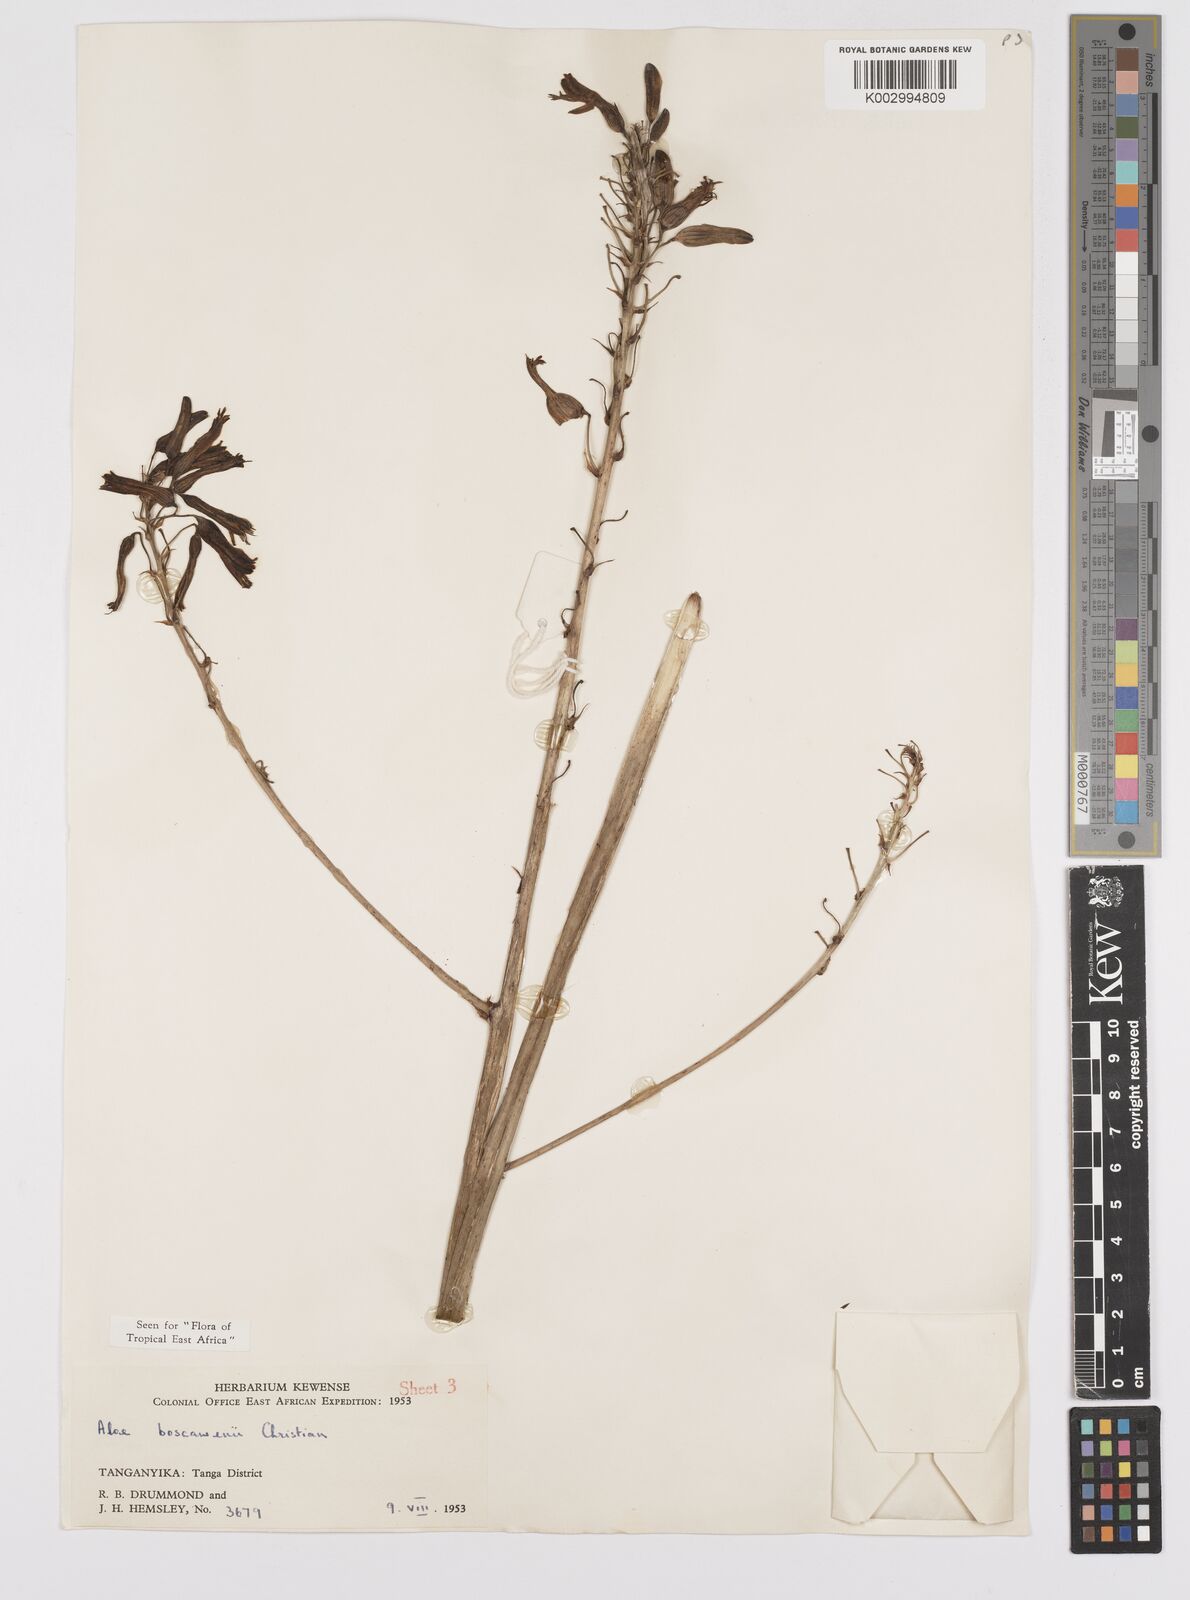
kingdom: Plantae
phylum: Tracheophyta
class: Liliopsida
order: Asparagales
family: Asphodelaceae
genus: Aloe
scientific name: Aloe boscawenii
